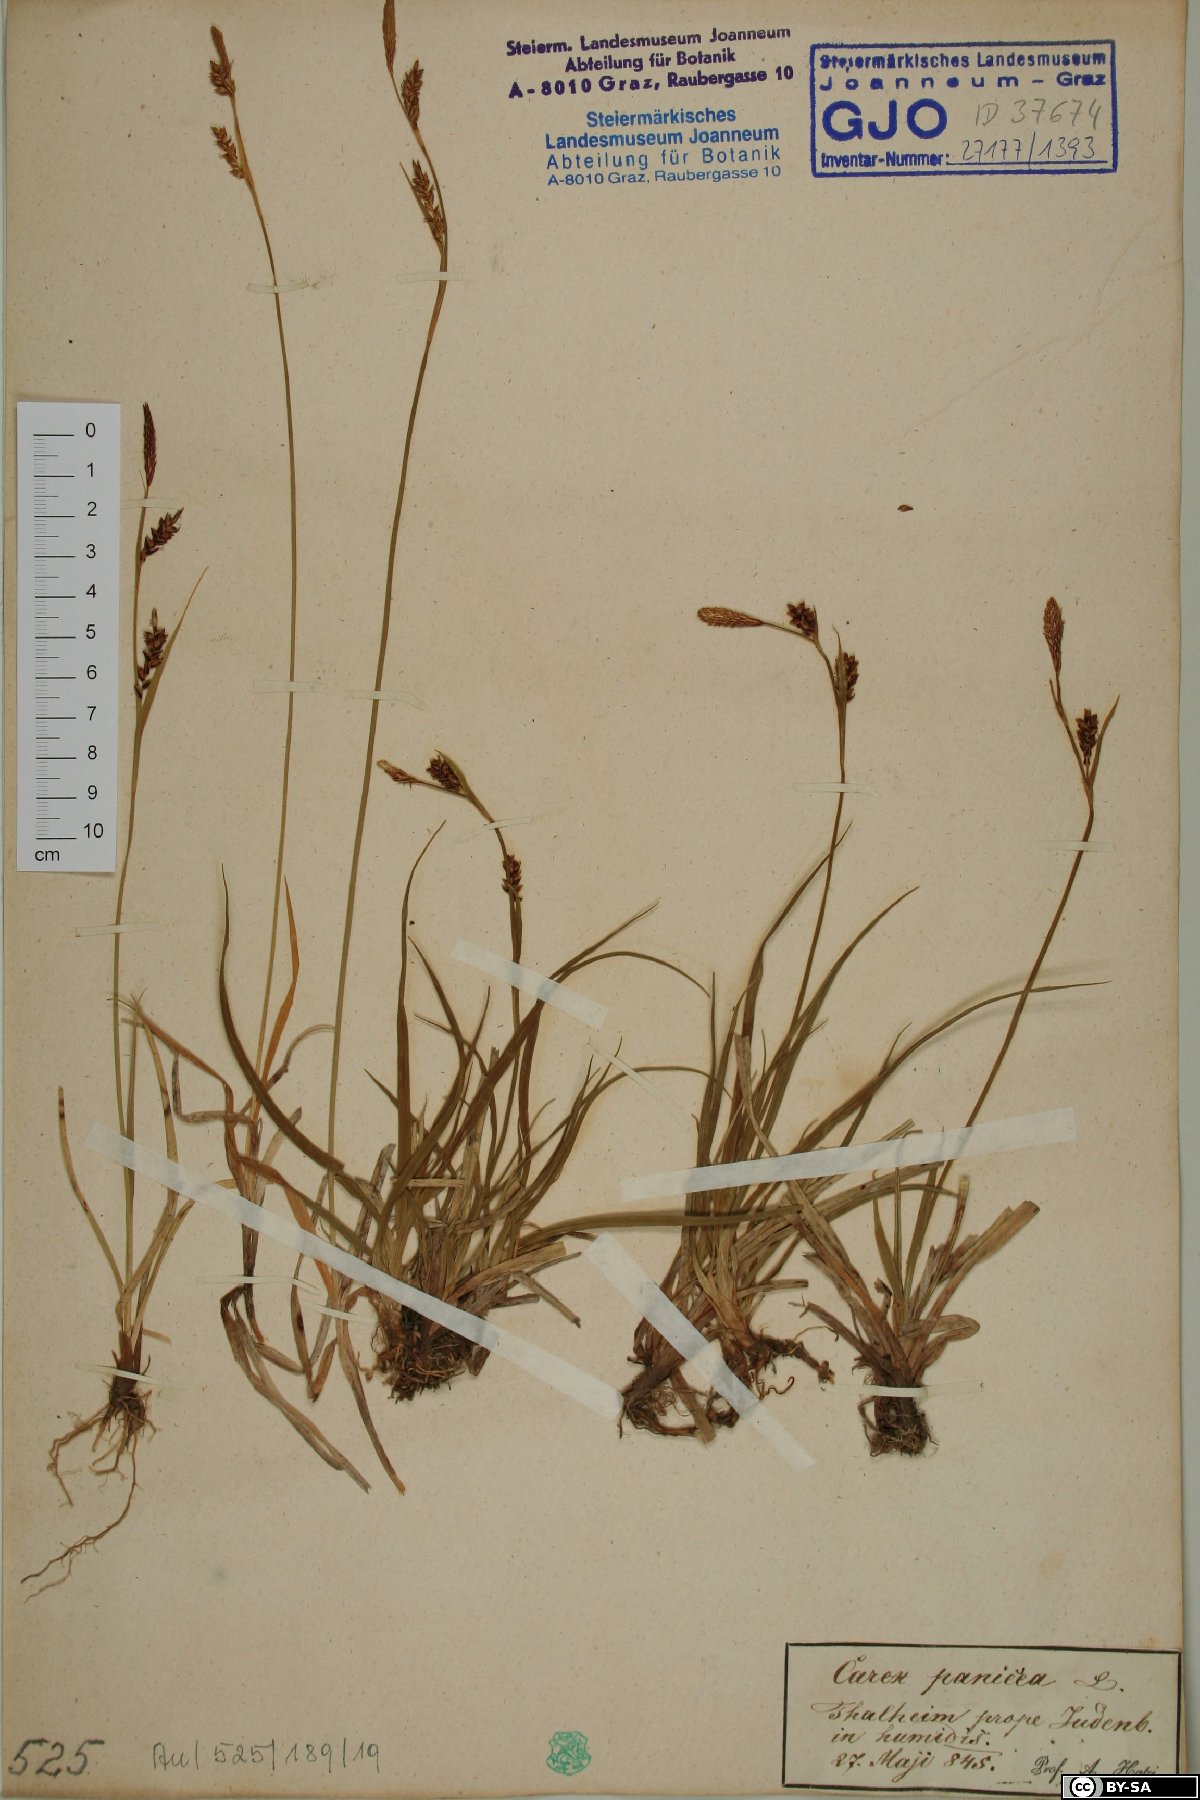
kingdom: Plantae
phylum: Tracheophyta
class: Liliopsida
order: Poales
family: Cyperaceae
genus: Carex
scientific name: Carex panicea
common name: Carnation sedge
